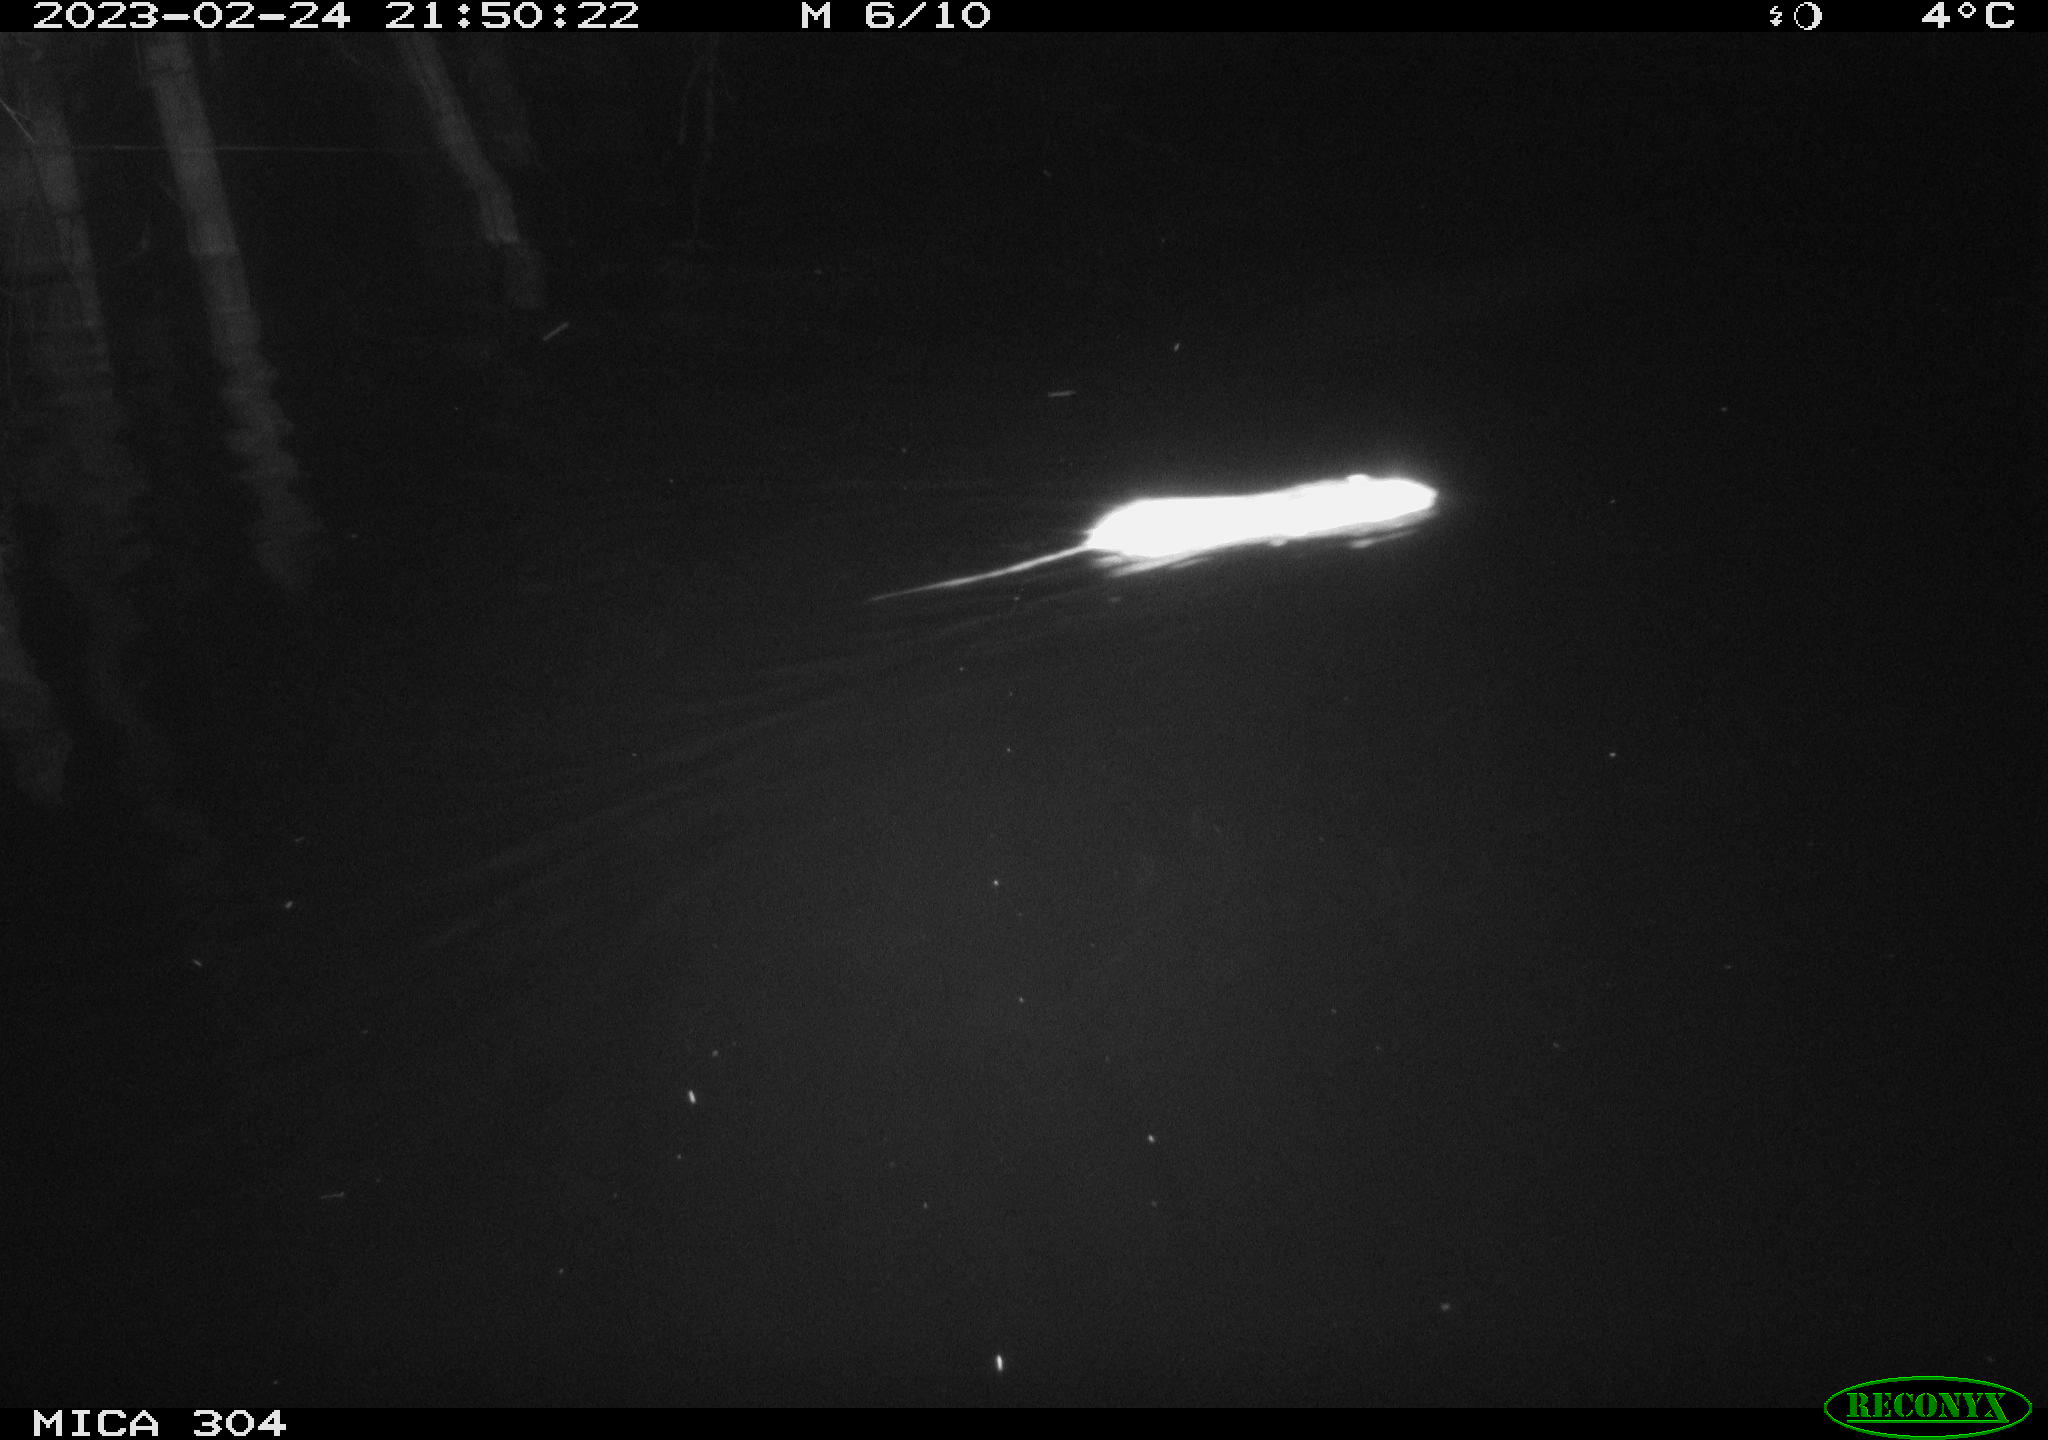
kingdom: Animalia
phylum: Chordata
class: Mammalia
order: Rodentia
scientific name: Rodentia
